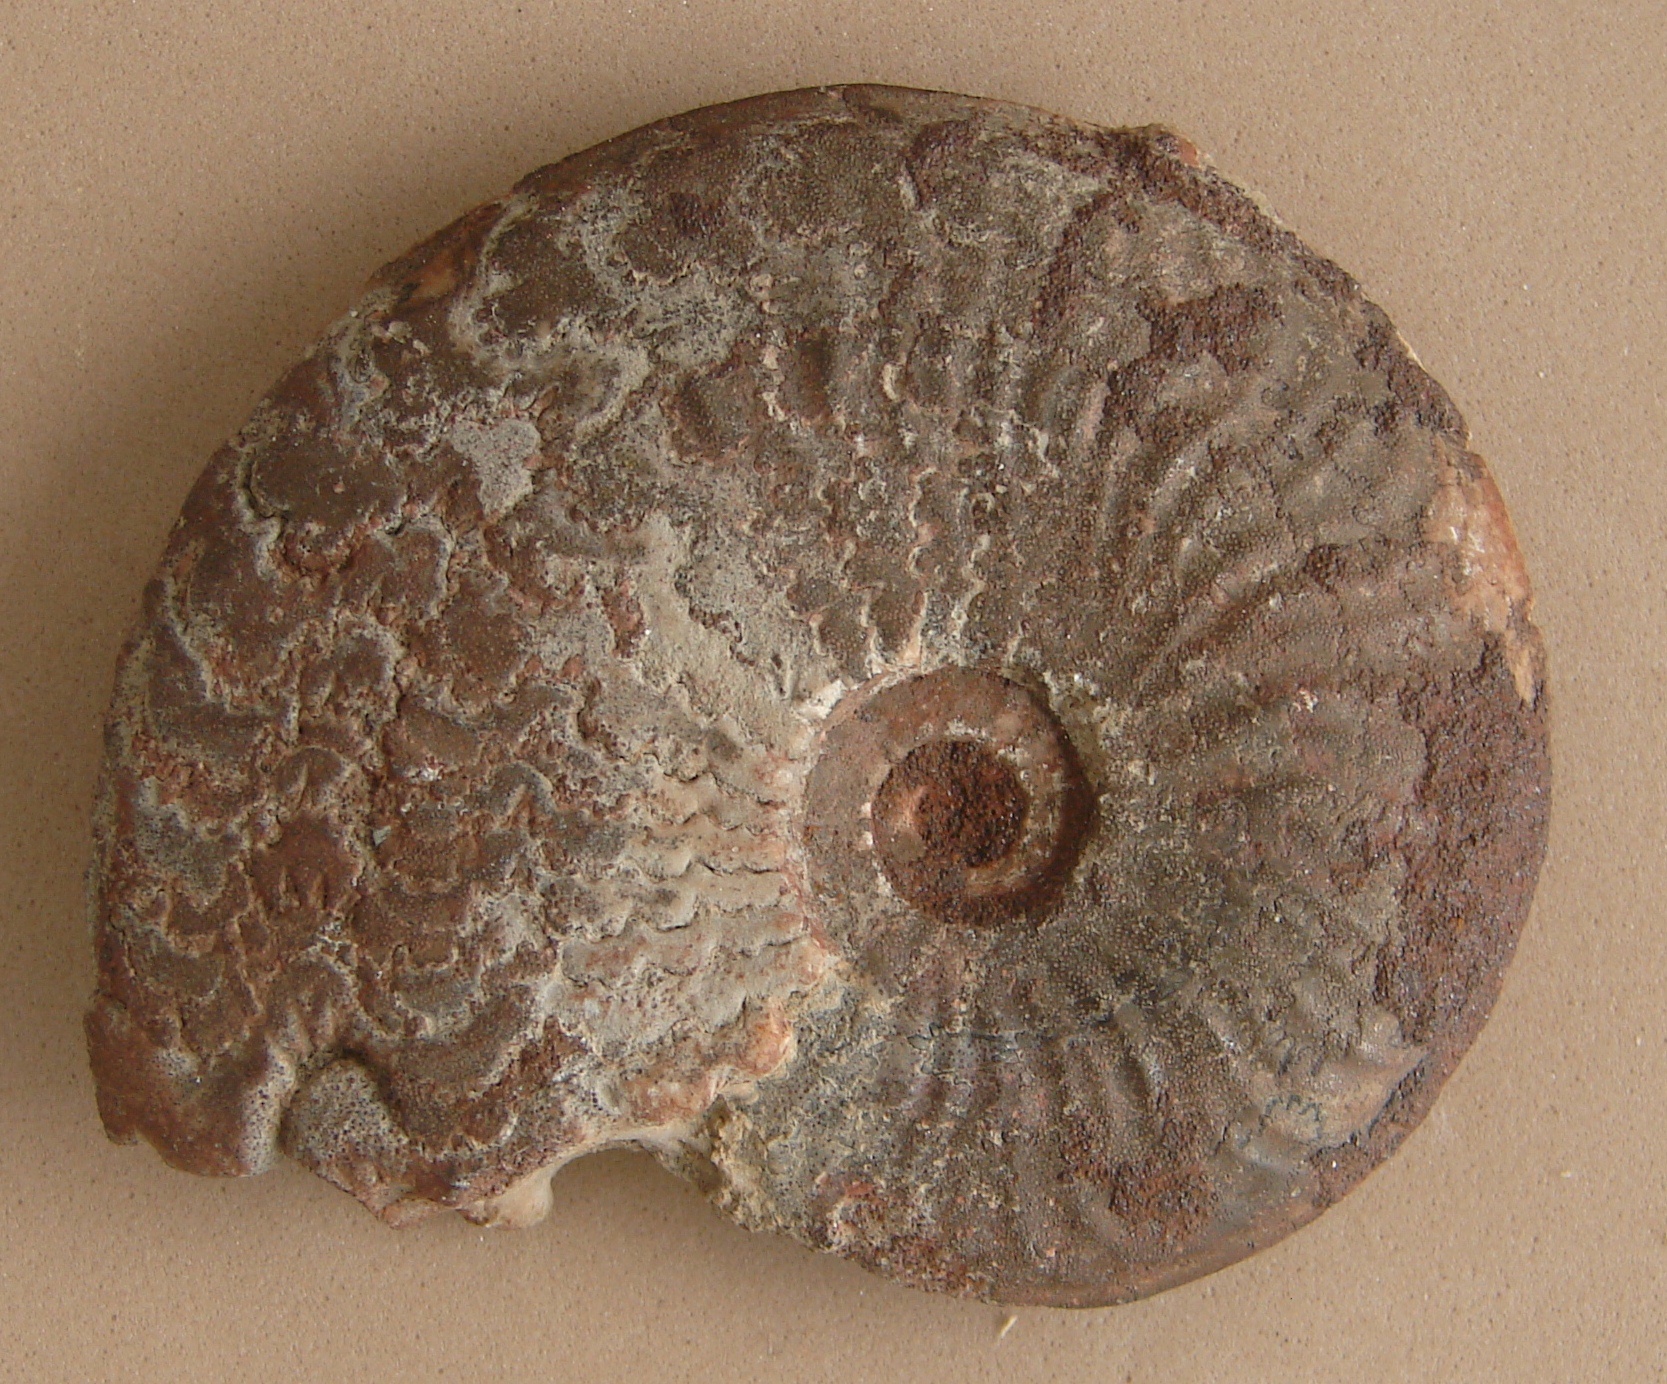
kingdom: Animalia
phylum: Mollusca
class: Cephalopoda
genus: Ancolioceras
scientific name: Ancolioceras
